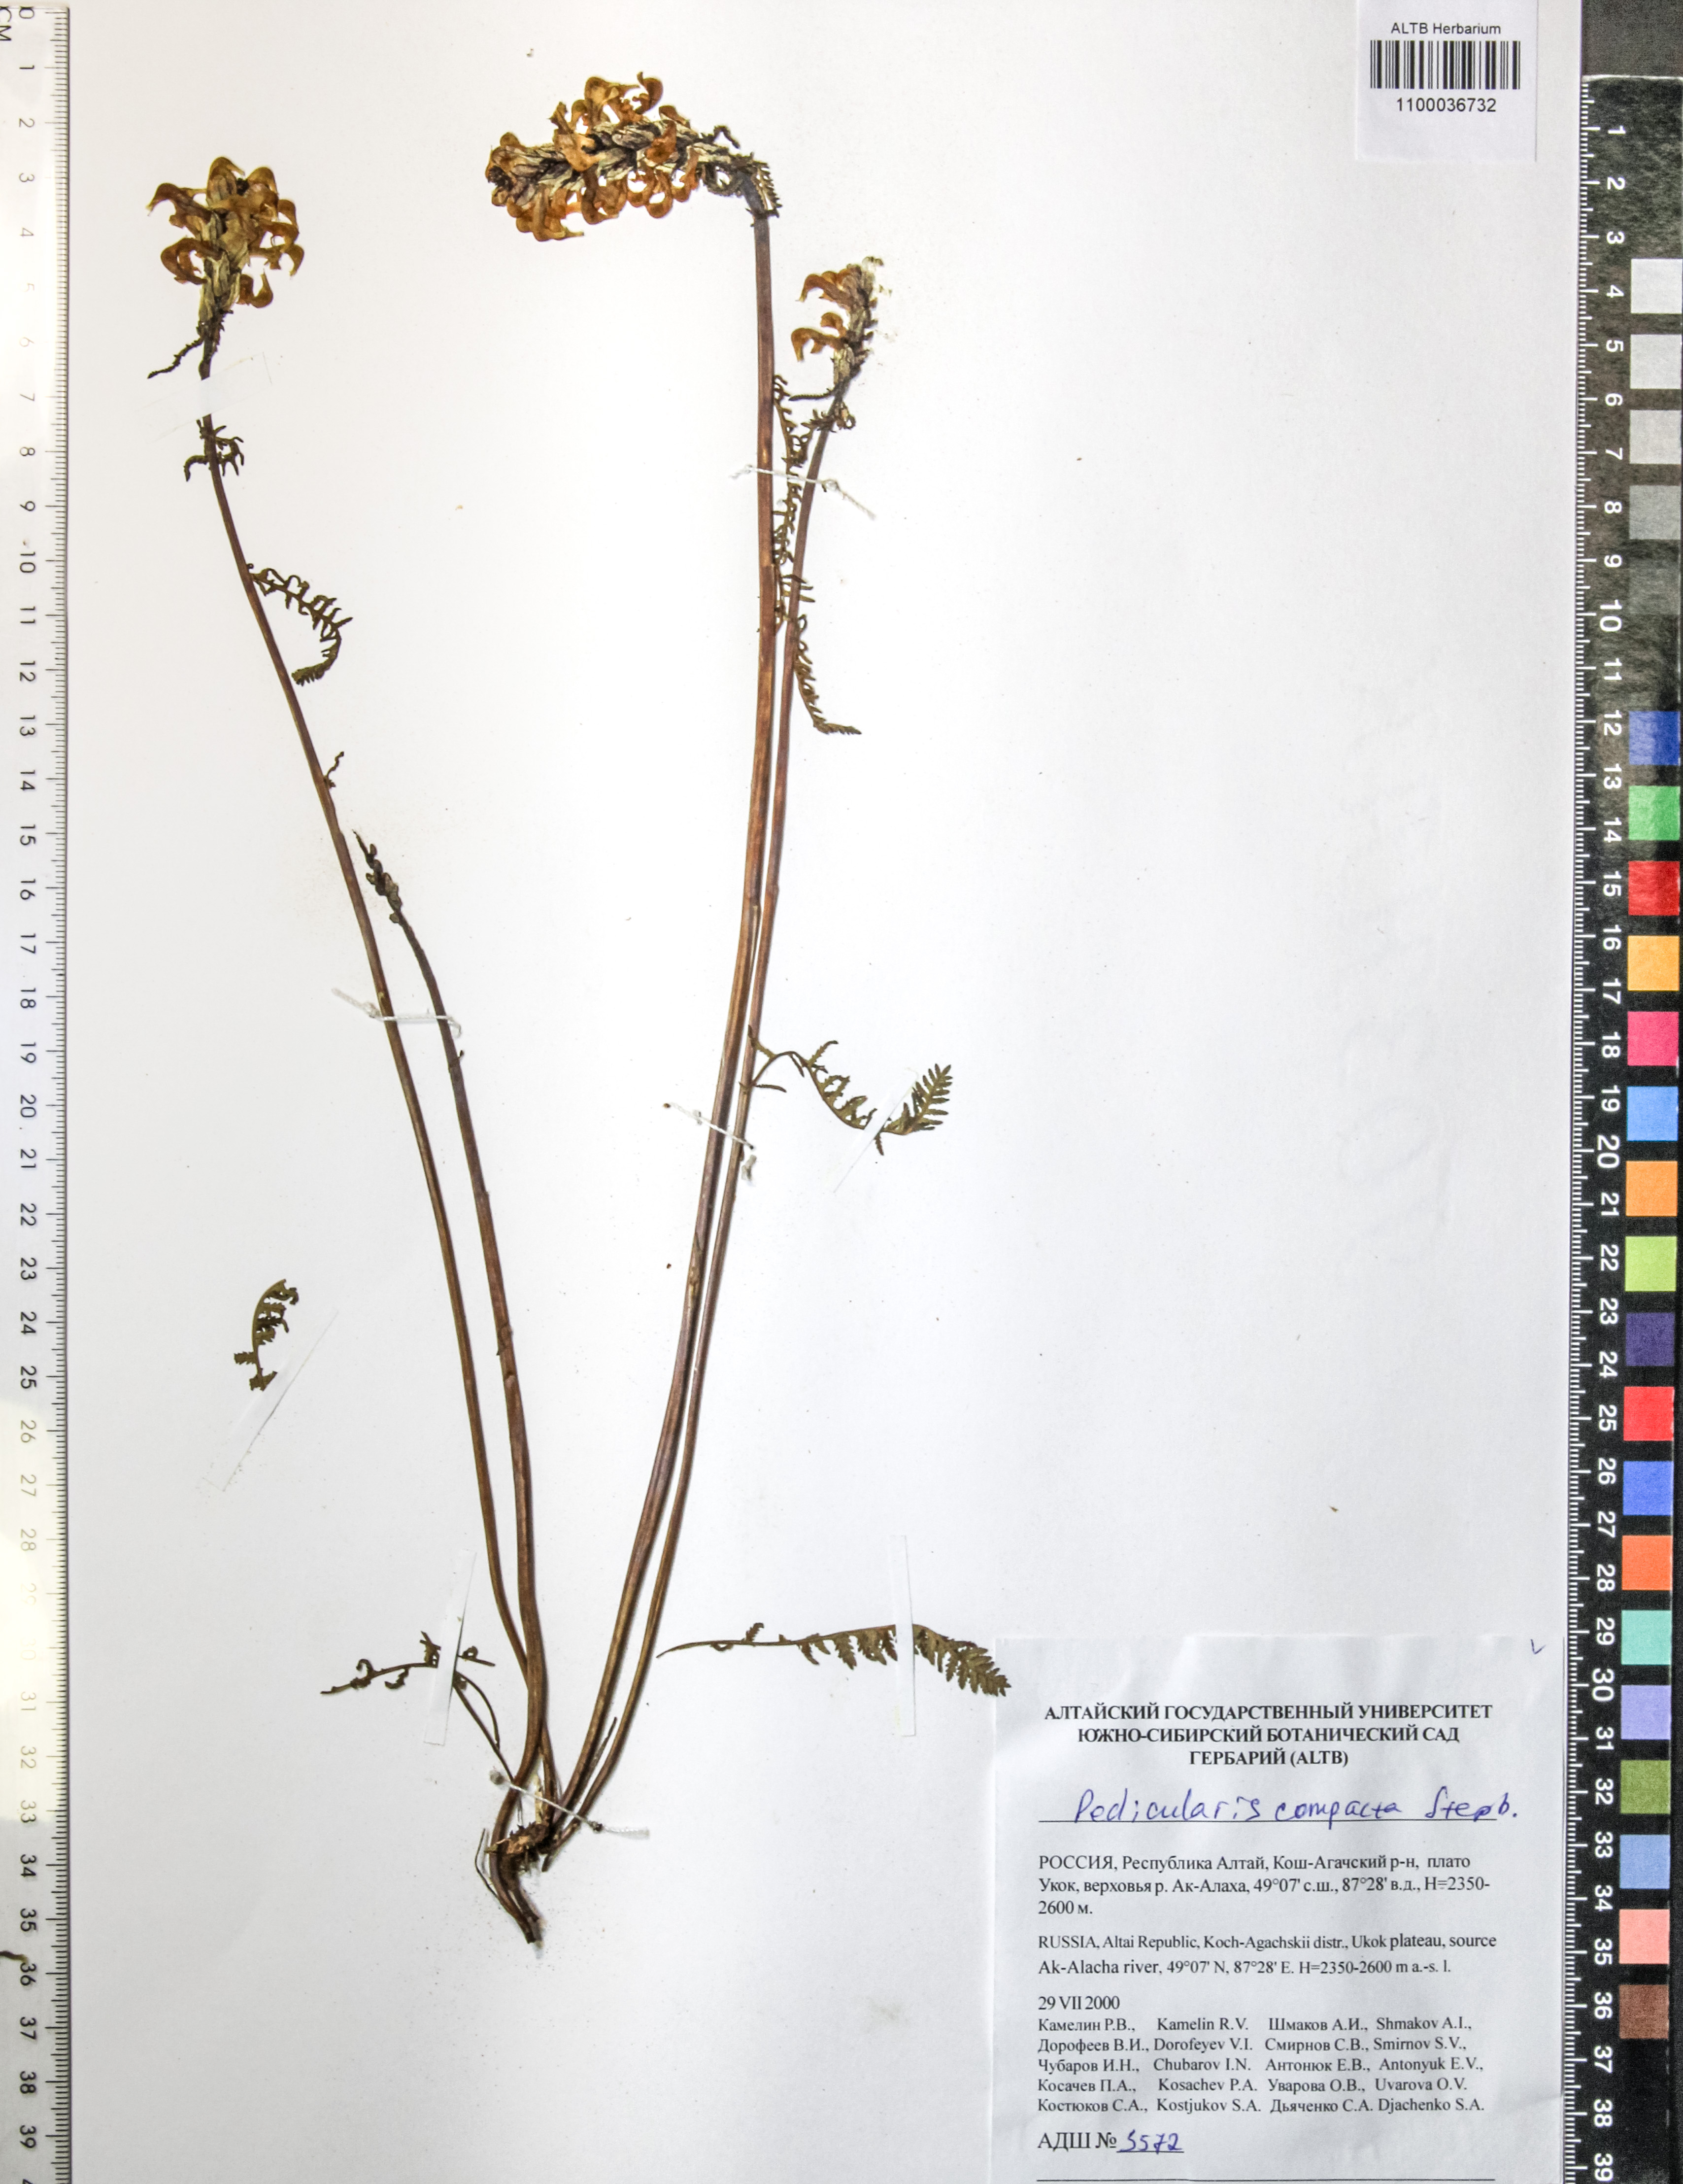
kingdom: Plantae
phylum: Tracheophyta
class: Magnoliopsida
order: Lamiales
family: Orobanchaceae
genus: Pedicularis
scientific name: Pedicularis compacta
